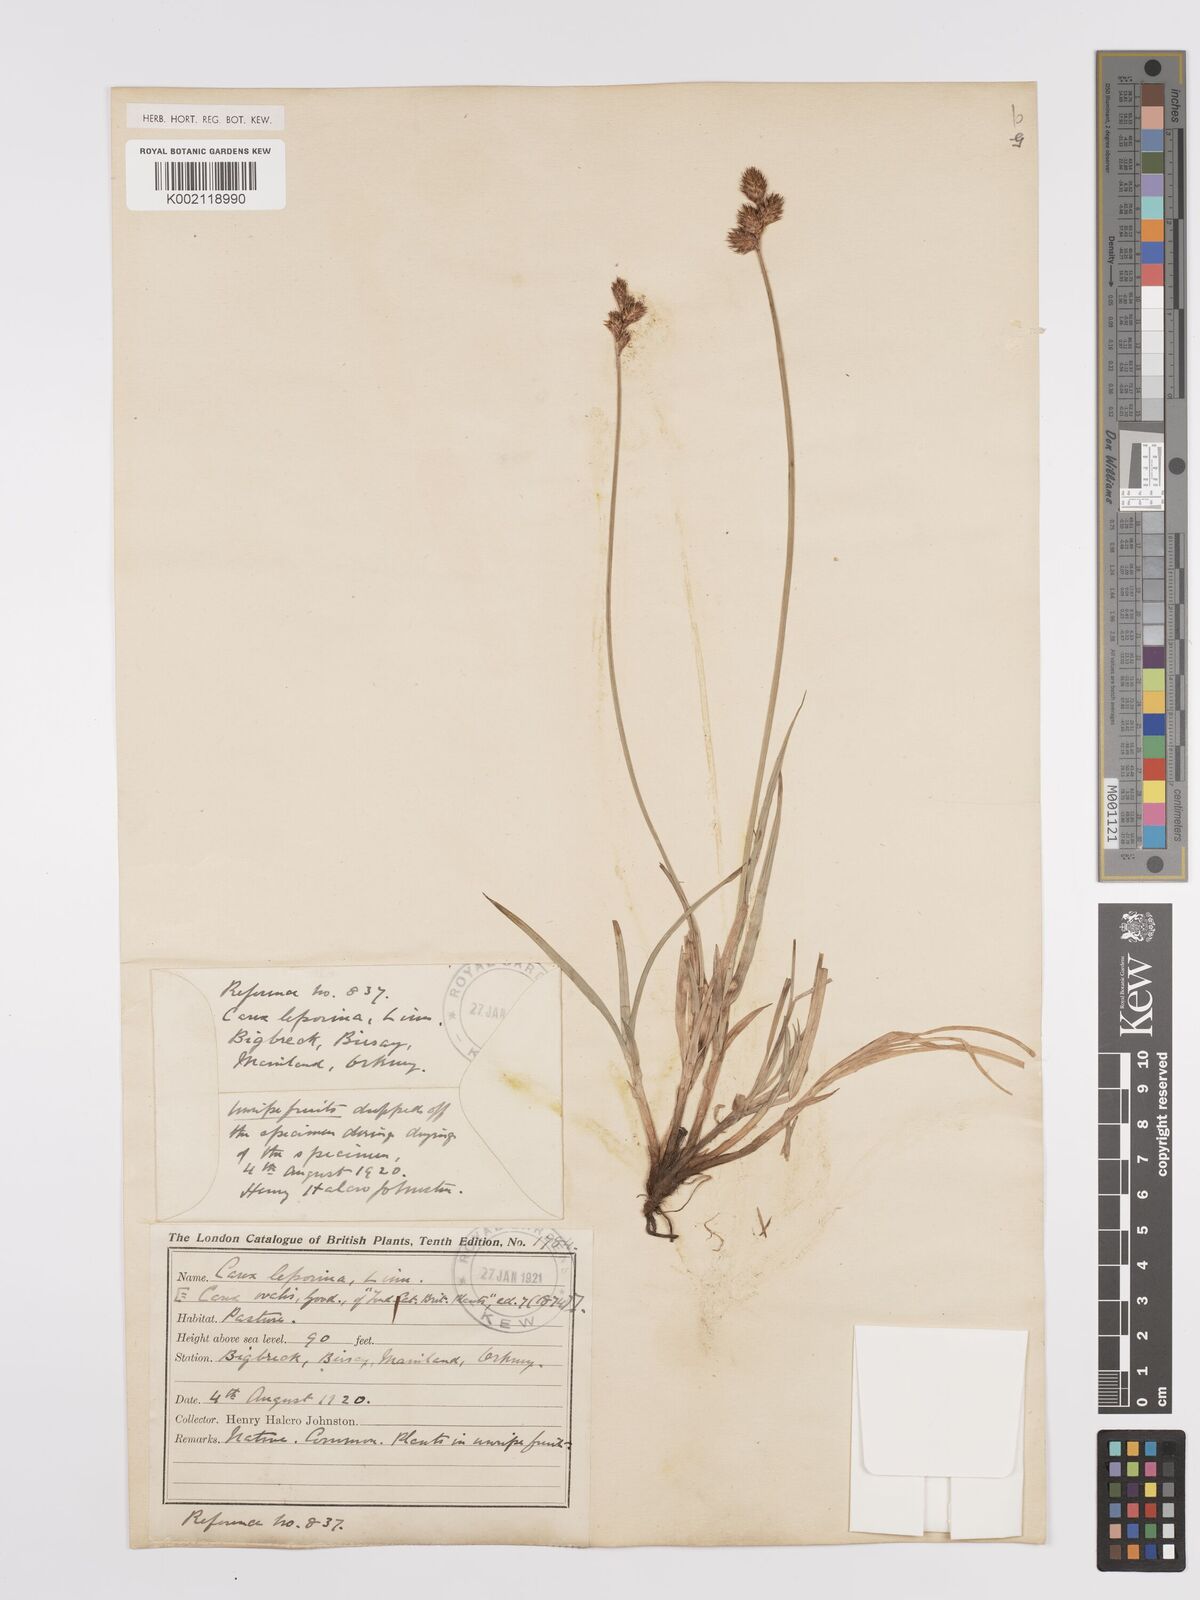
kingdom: Plantae
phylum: Tracheophyta
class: Liliopsida
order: Poales
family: Cyperaceae
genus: Carex
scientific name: Carex leporina
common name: Oval sedge
